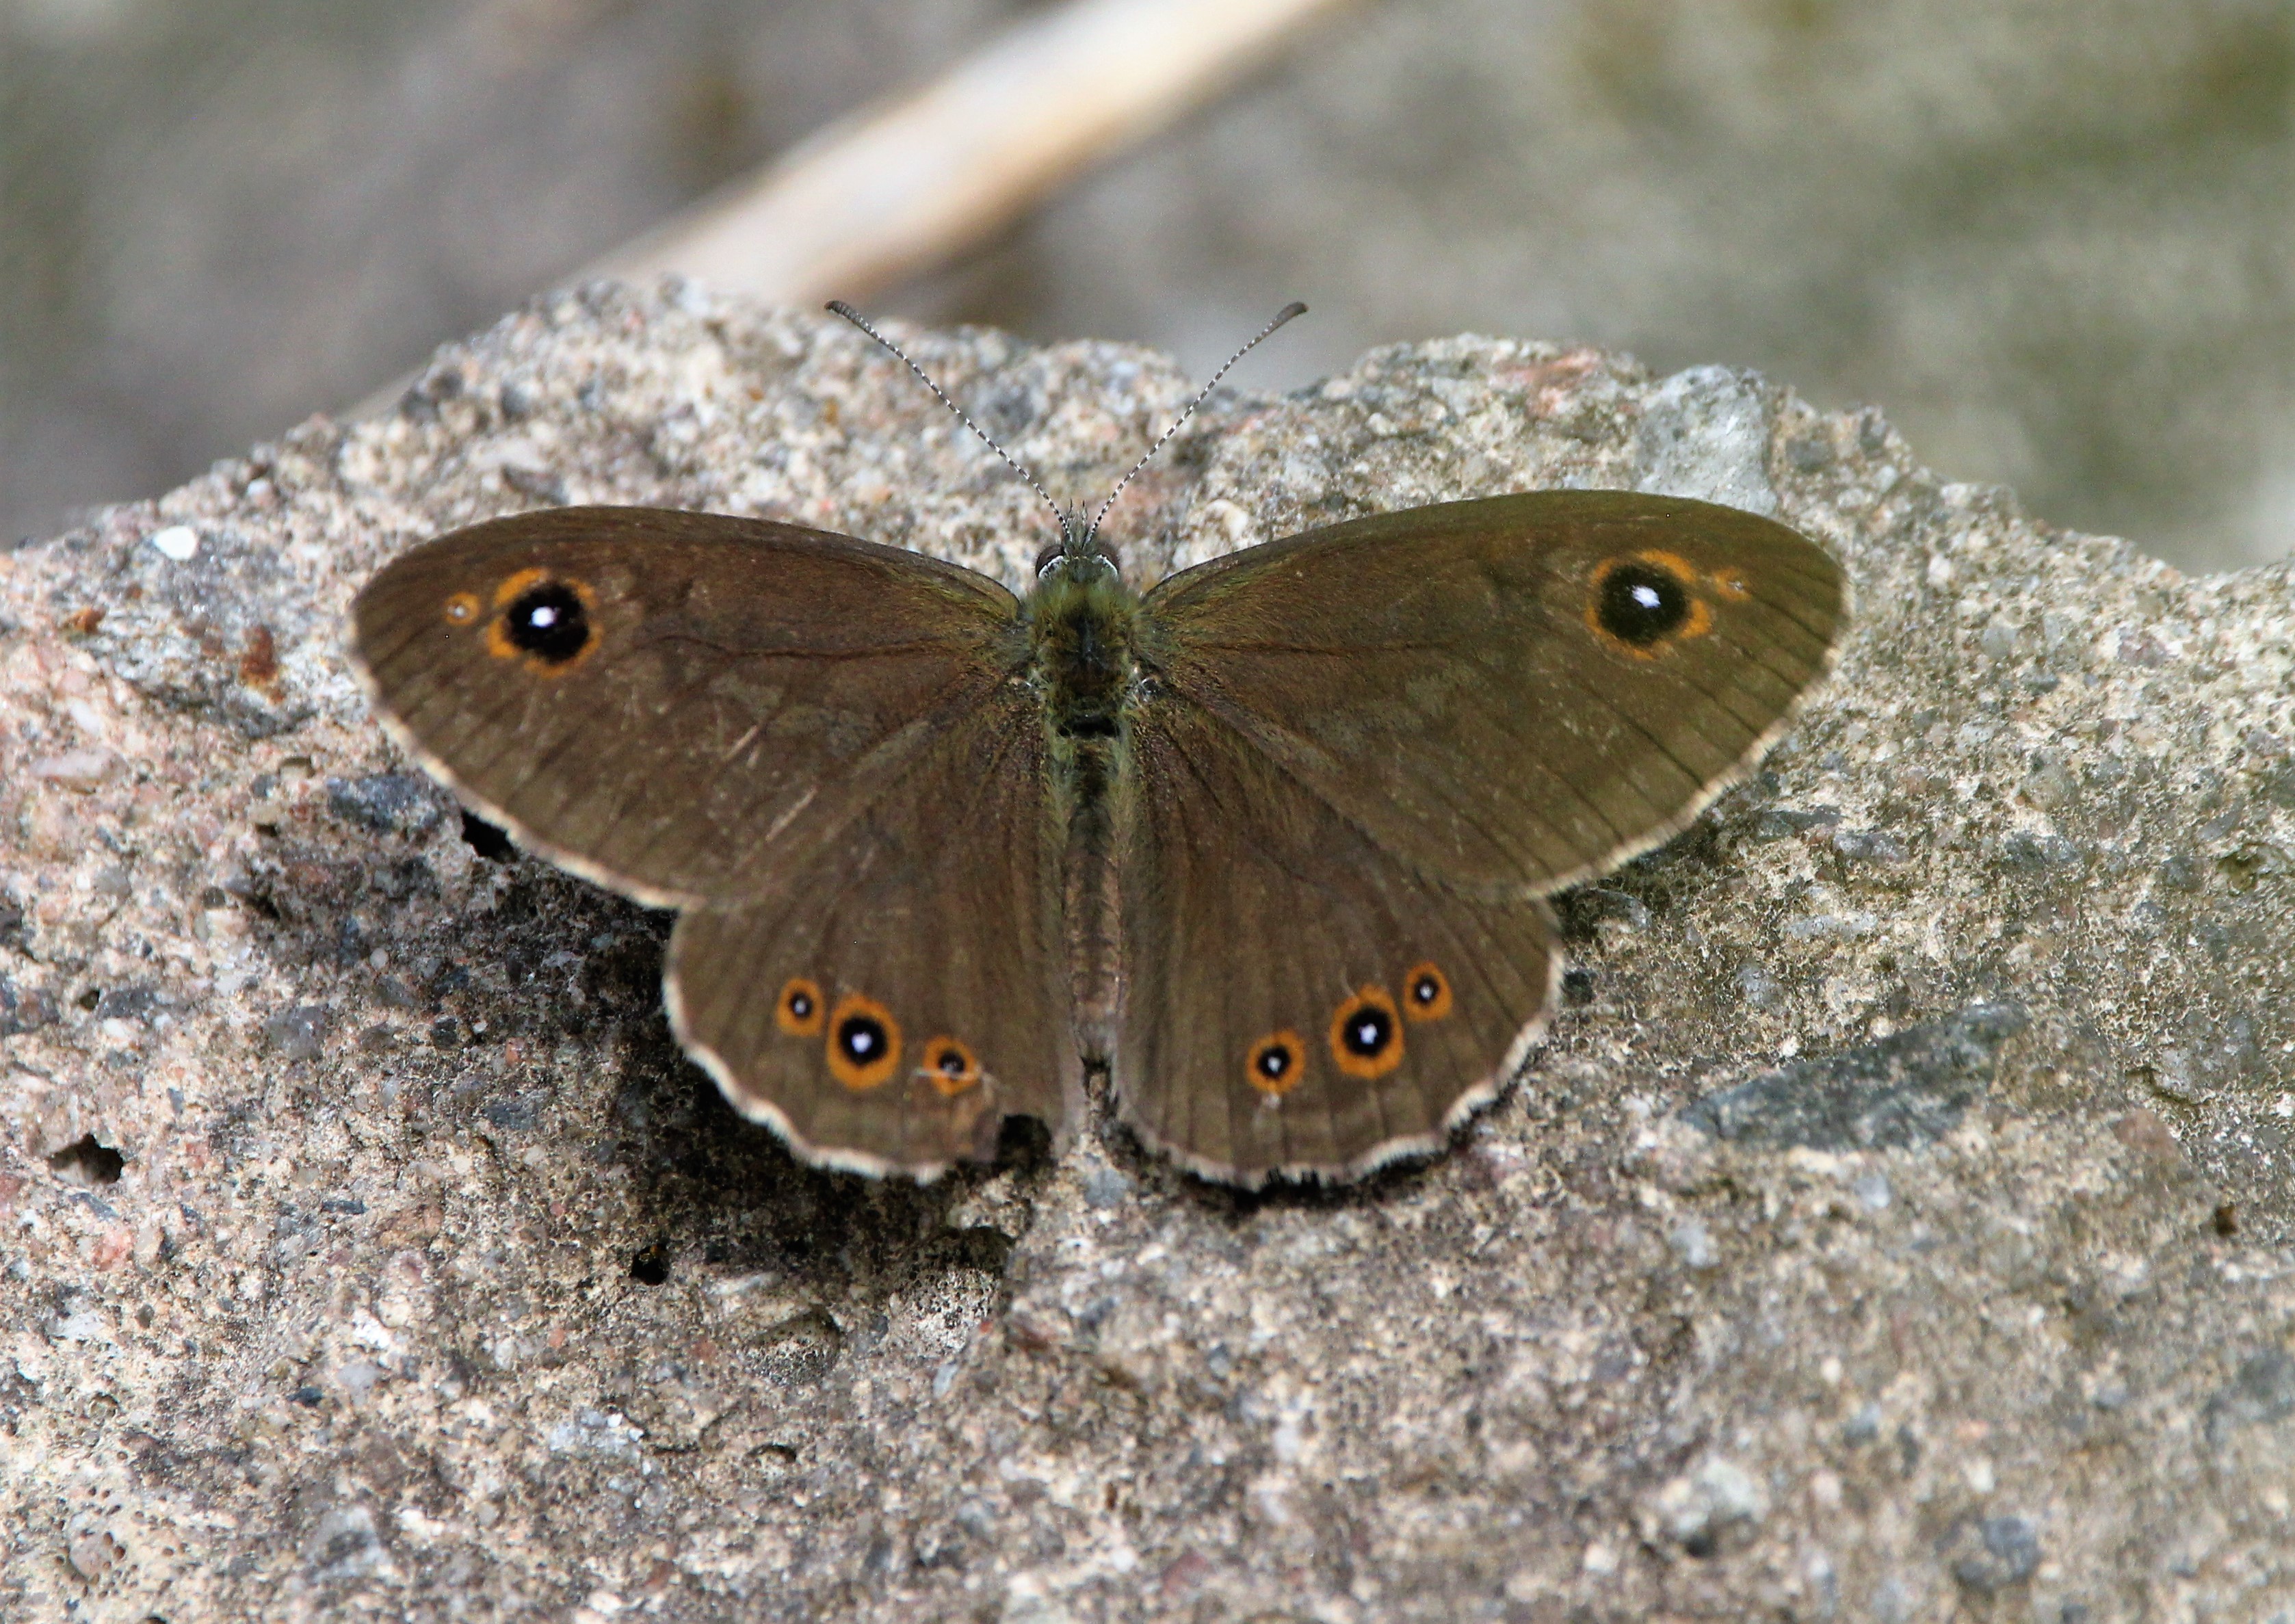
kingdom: Animalia
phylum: Arthropoda
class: Insecta
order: Lepidoptera
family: Nymphalidae
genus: Pararge
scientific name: Pararge Lasiommata maera
